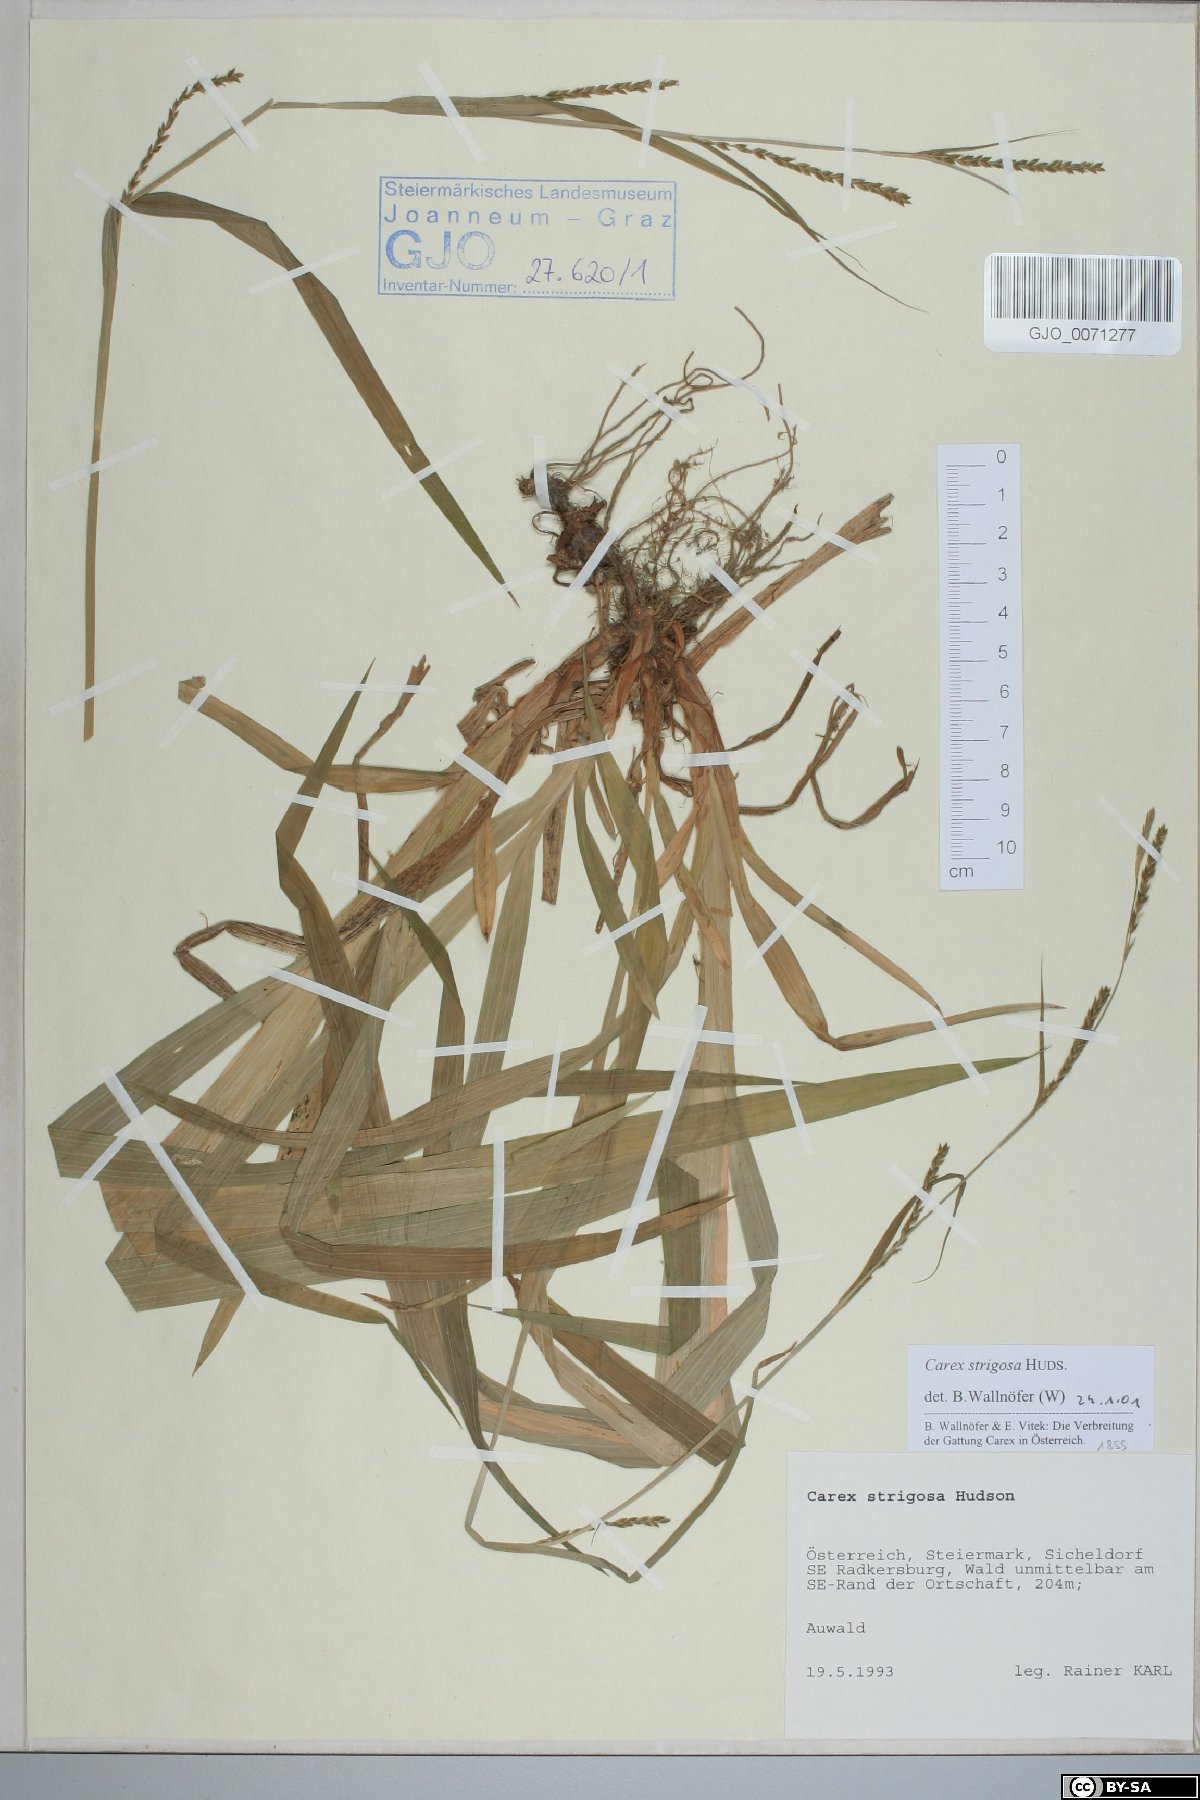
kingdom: Plantae
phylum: Tracheophyta
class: Liliopsida
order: Poales
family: Cyperaceae
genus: Carex
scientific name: Carex strigosa
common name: Thin-spiked wood-sedge
